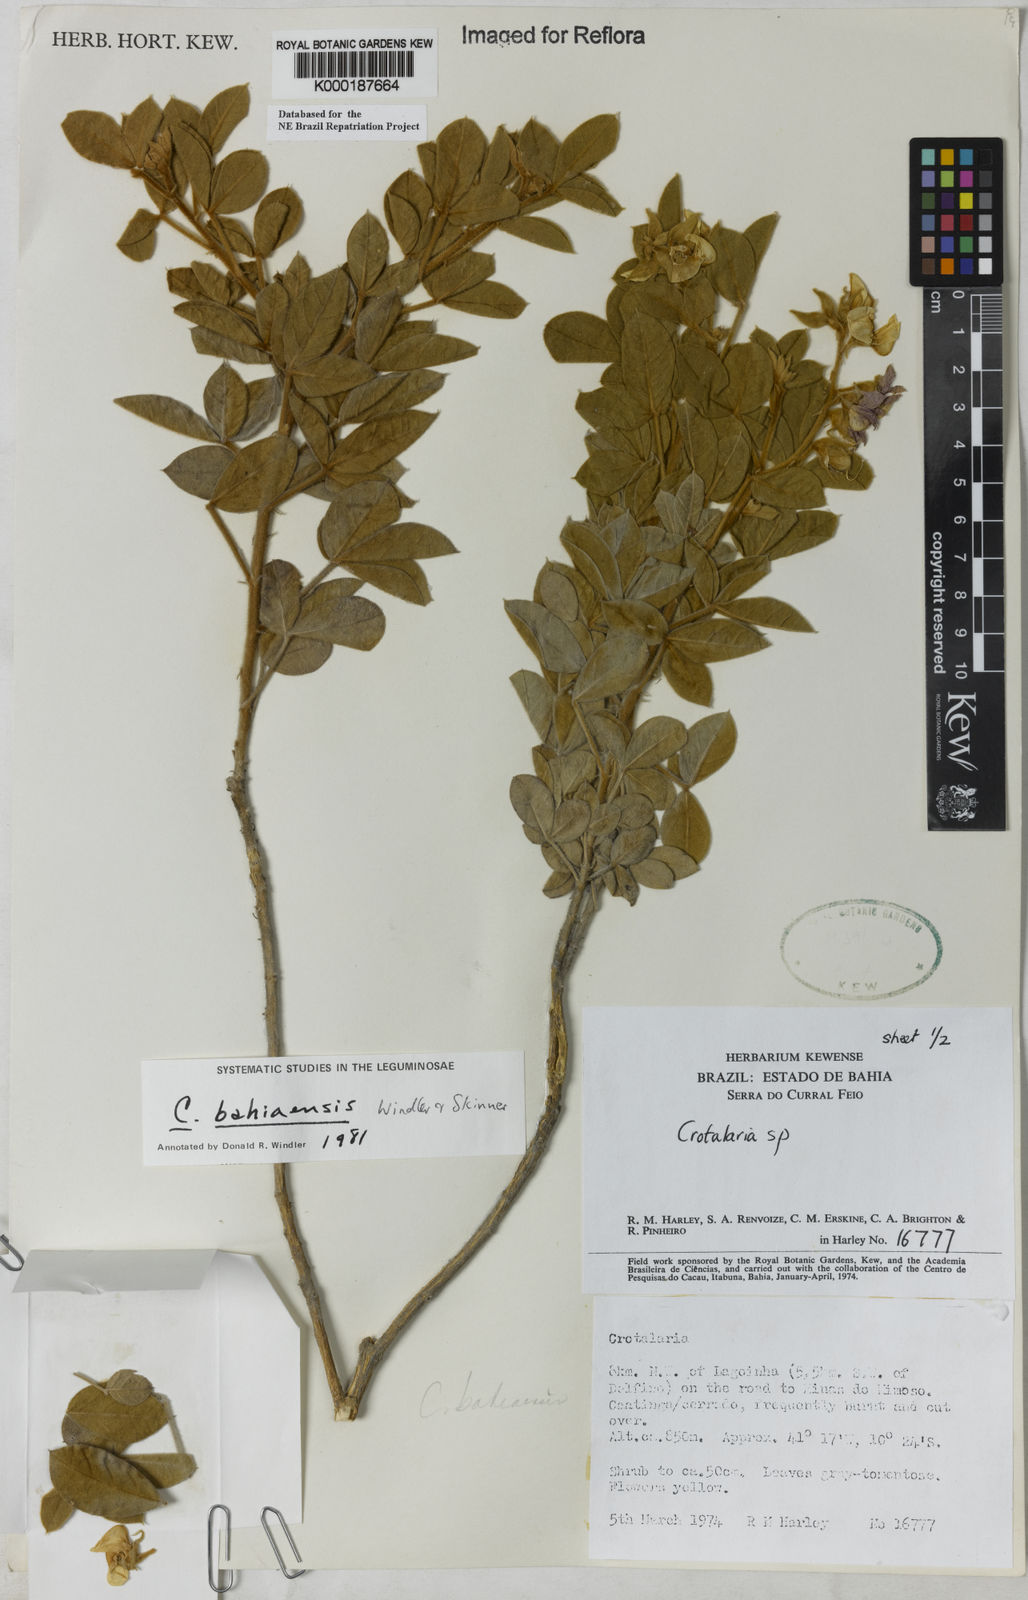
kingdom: Plantae
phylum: Tracheophyta
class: Magnoliopsida
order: Fabales
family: Fabaceae
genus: Crotalaria
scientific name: Crotalaria
